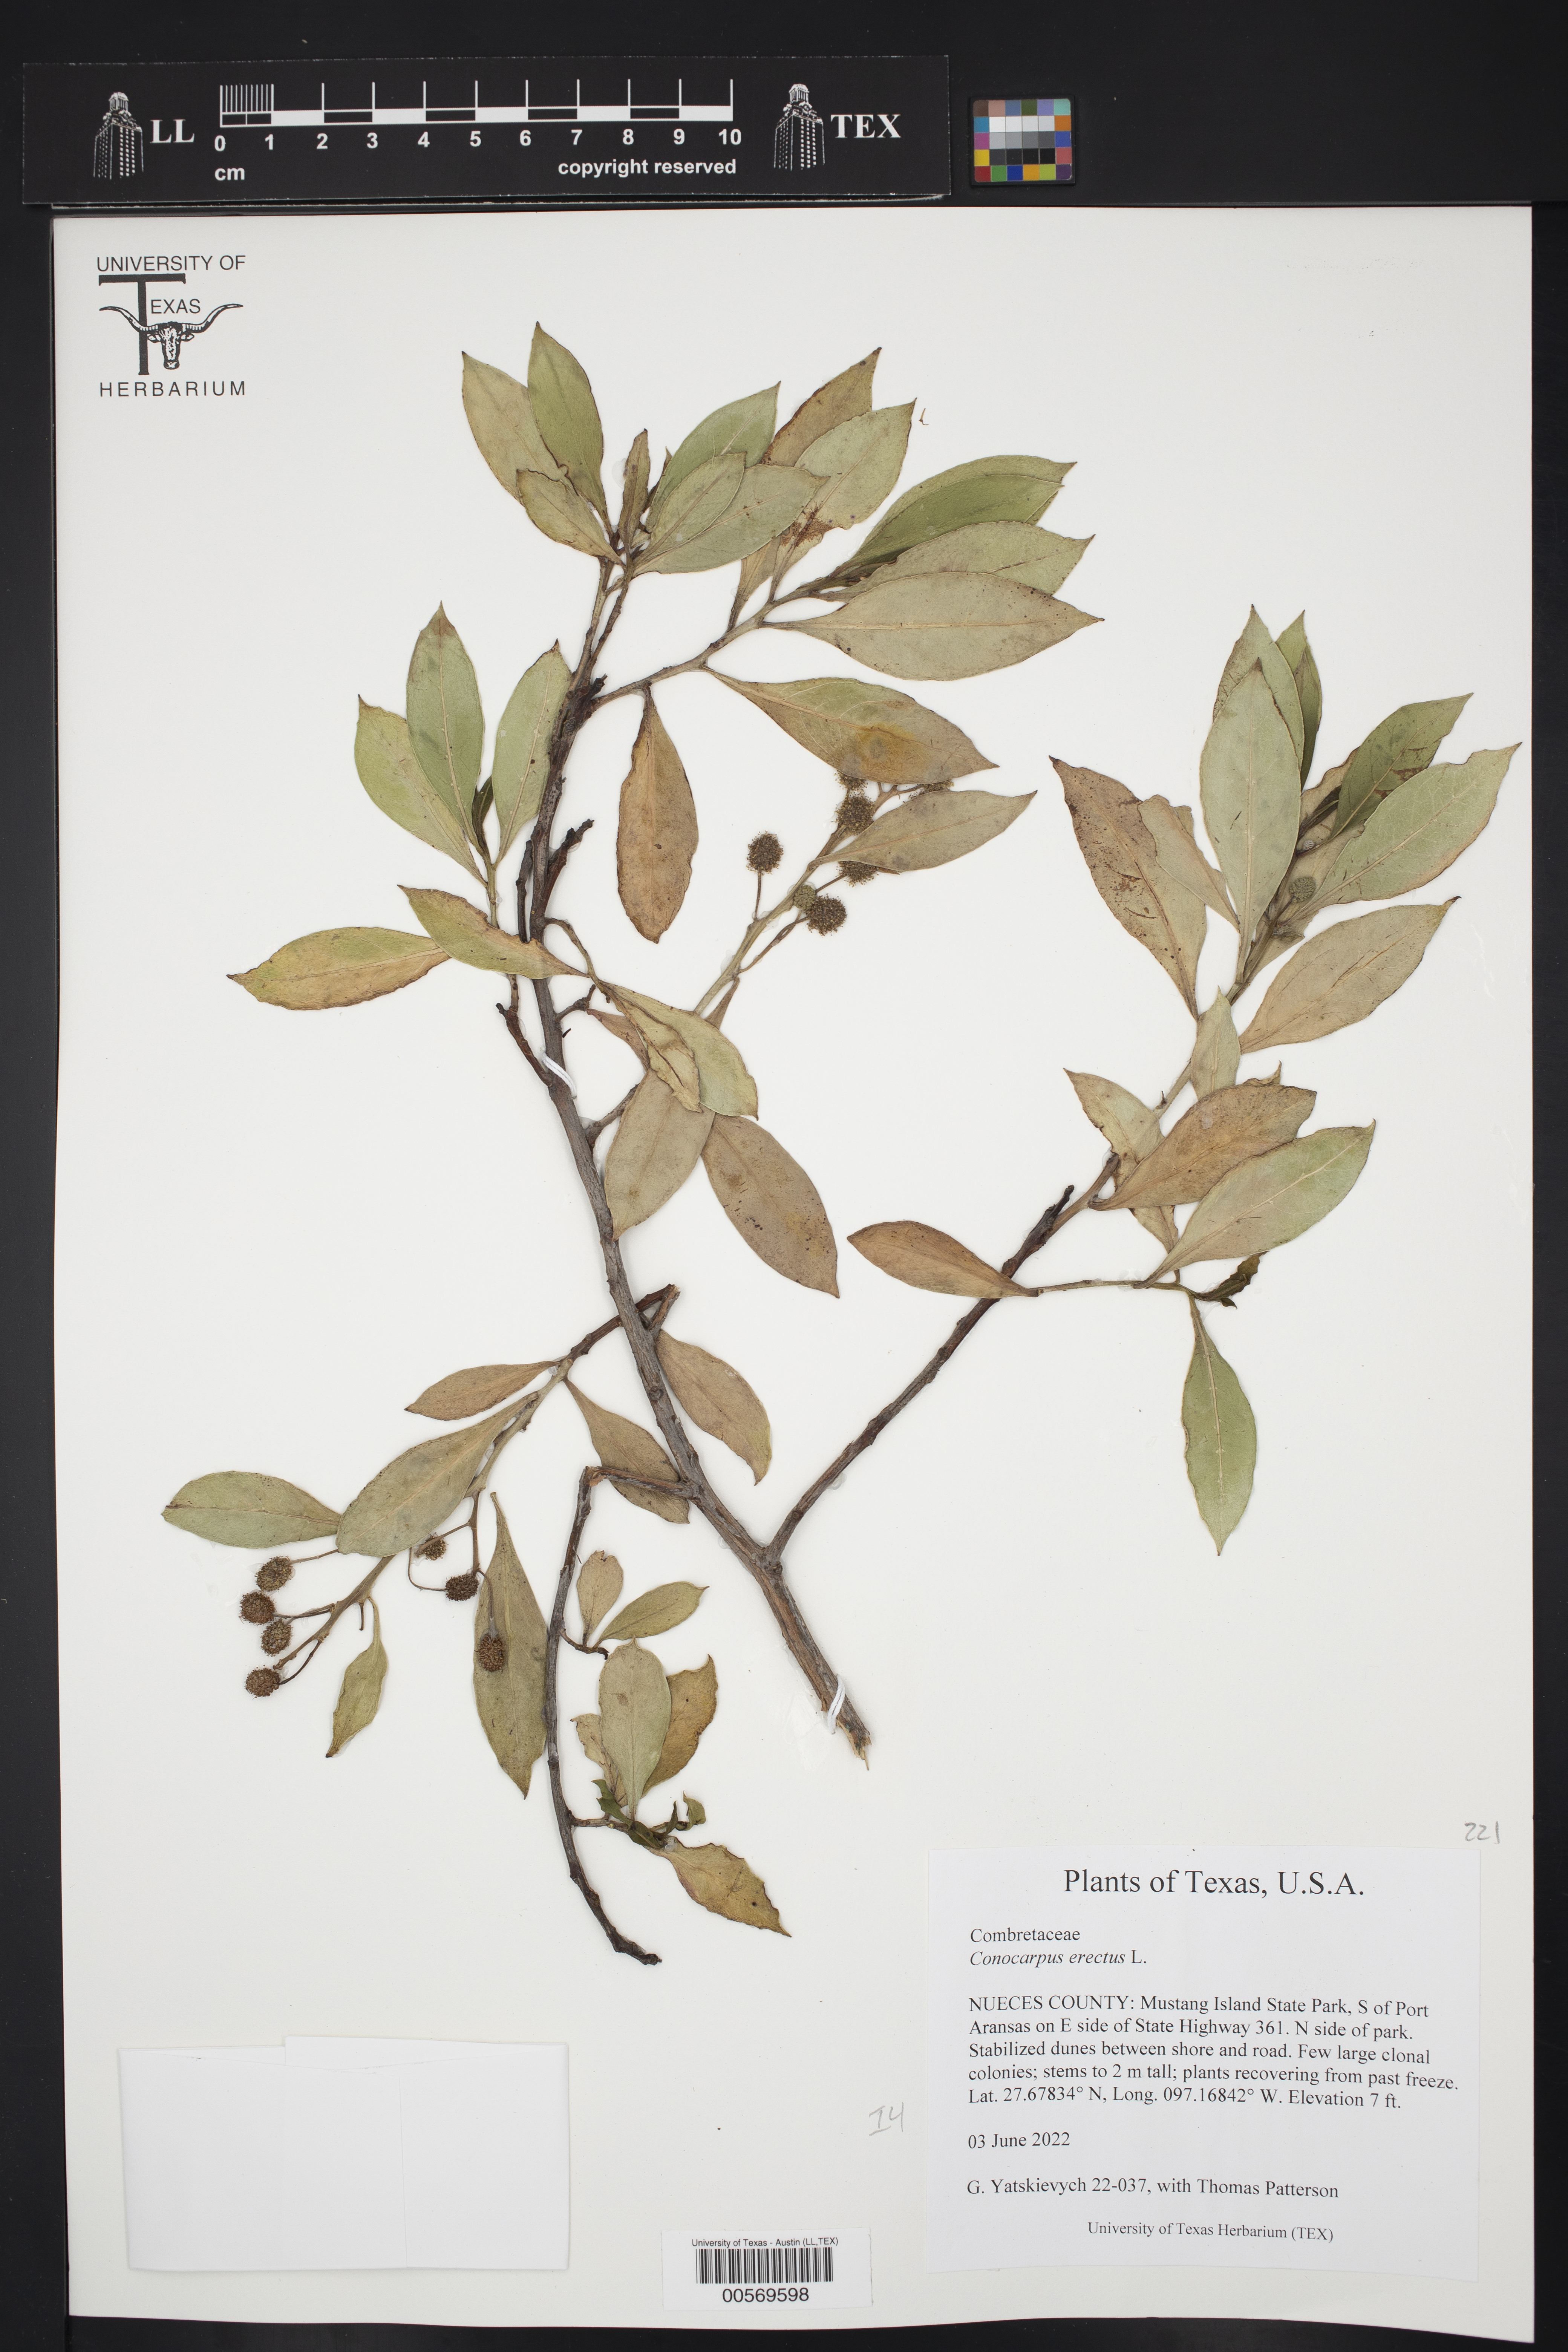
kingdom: Plantae
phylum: Tracheophyta
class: Magnoliopsida
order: Myrtales
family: Combretaceae
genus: Conocarpus
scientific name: Conocarpus erectus
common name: Button mangrove
